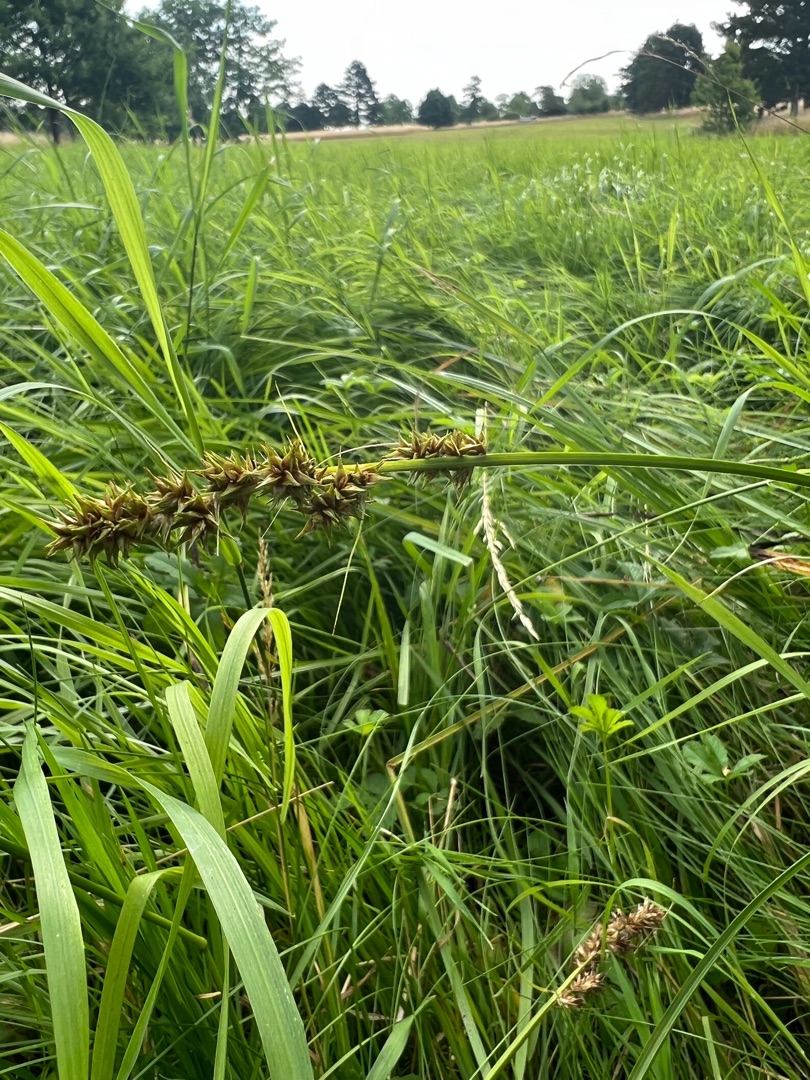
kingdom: Plantae
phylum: Tracheophyta
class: Liliopsida
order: Poales
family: Cyperaceae
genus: Carex
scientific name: Carex otrubae
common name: Sylt-star
